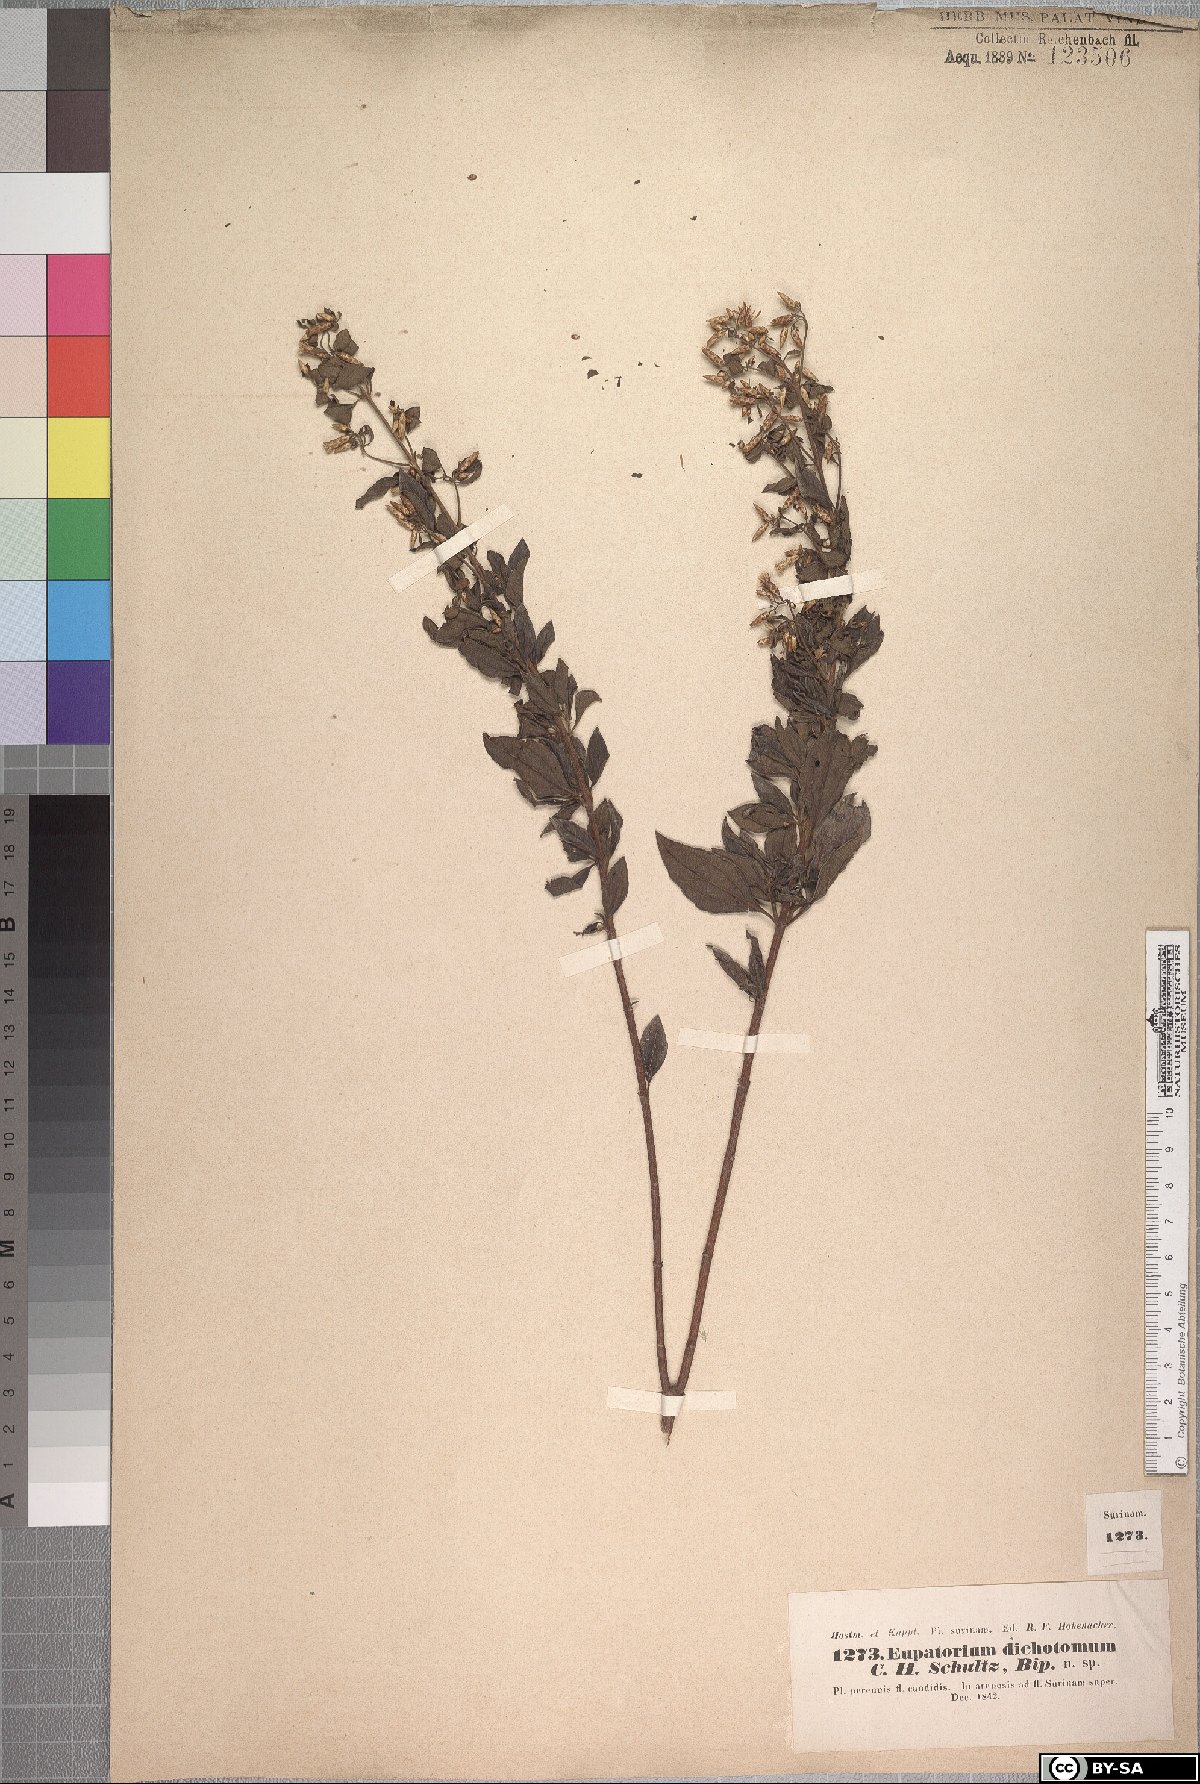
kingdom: Plantae
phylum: Tracheophyta
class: Magnoliopsida
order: Asterales
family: Asteraceae
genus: Chromolaena
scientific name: Chromolaena squalida
